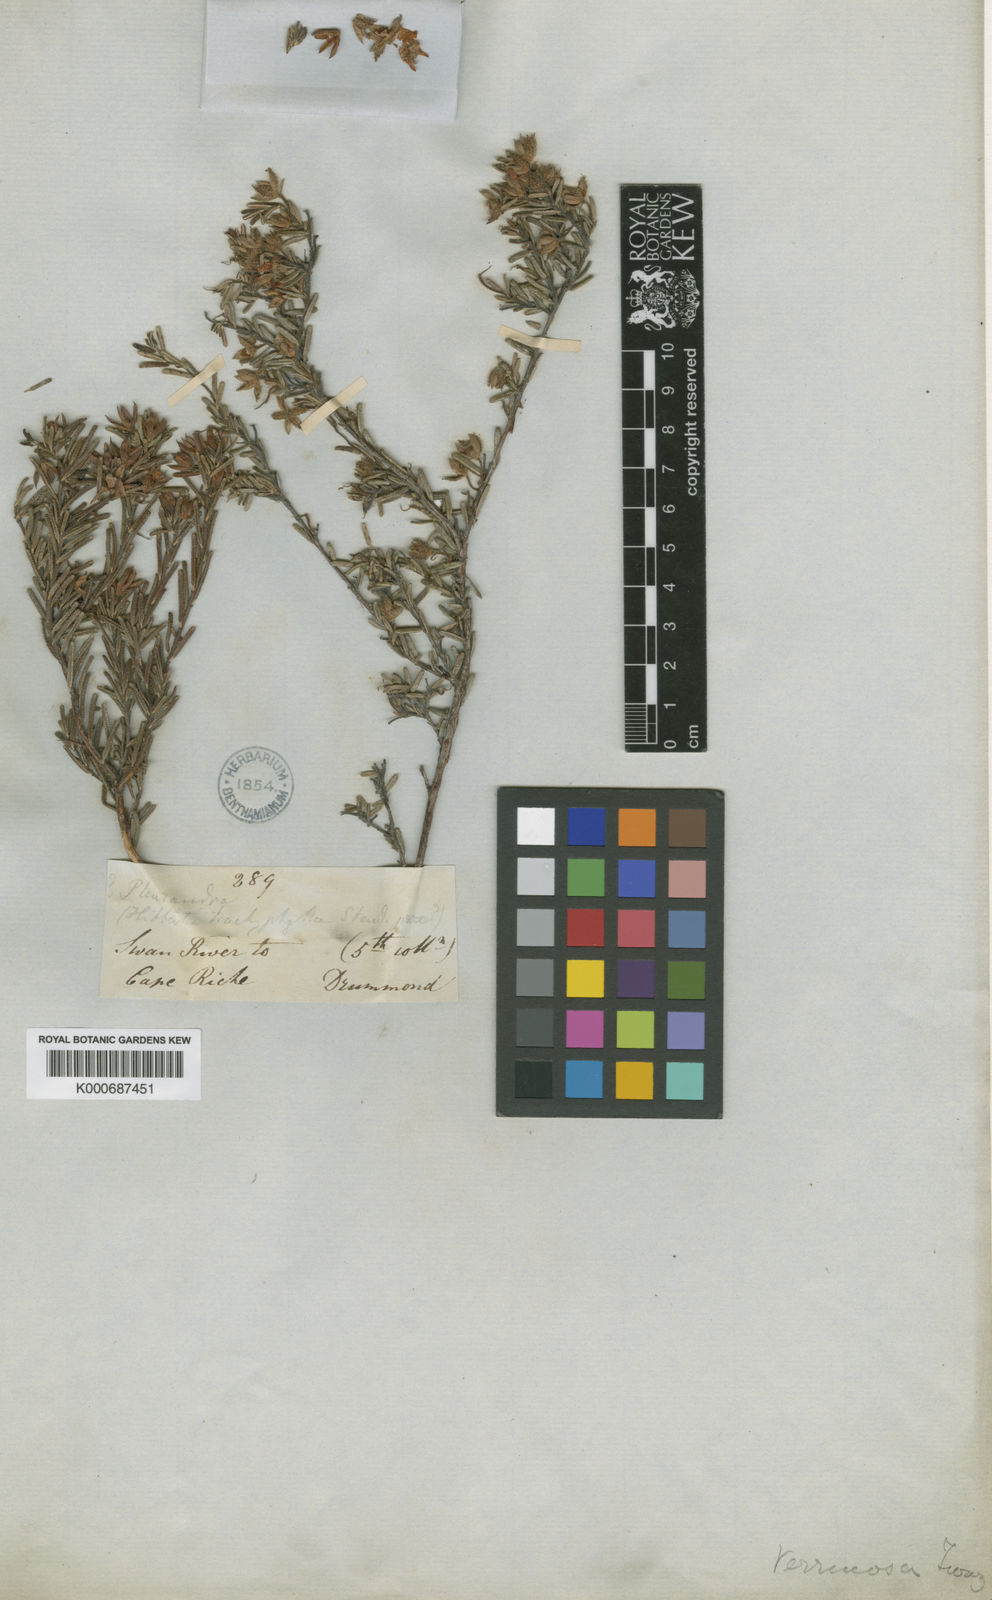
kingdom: Plantae
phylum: Tracheophyta
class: Magnoliopsida
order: Dilleniales
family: Dilleniaceae
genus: Hibbertia
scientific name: Hibbertia verrucosa
